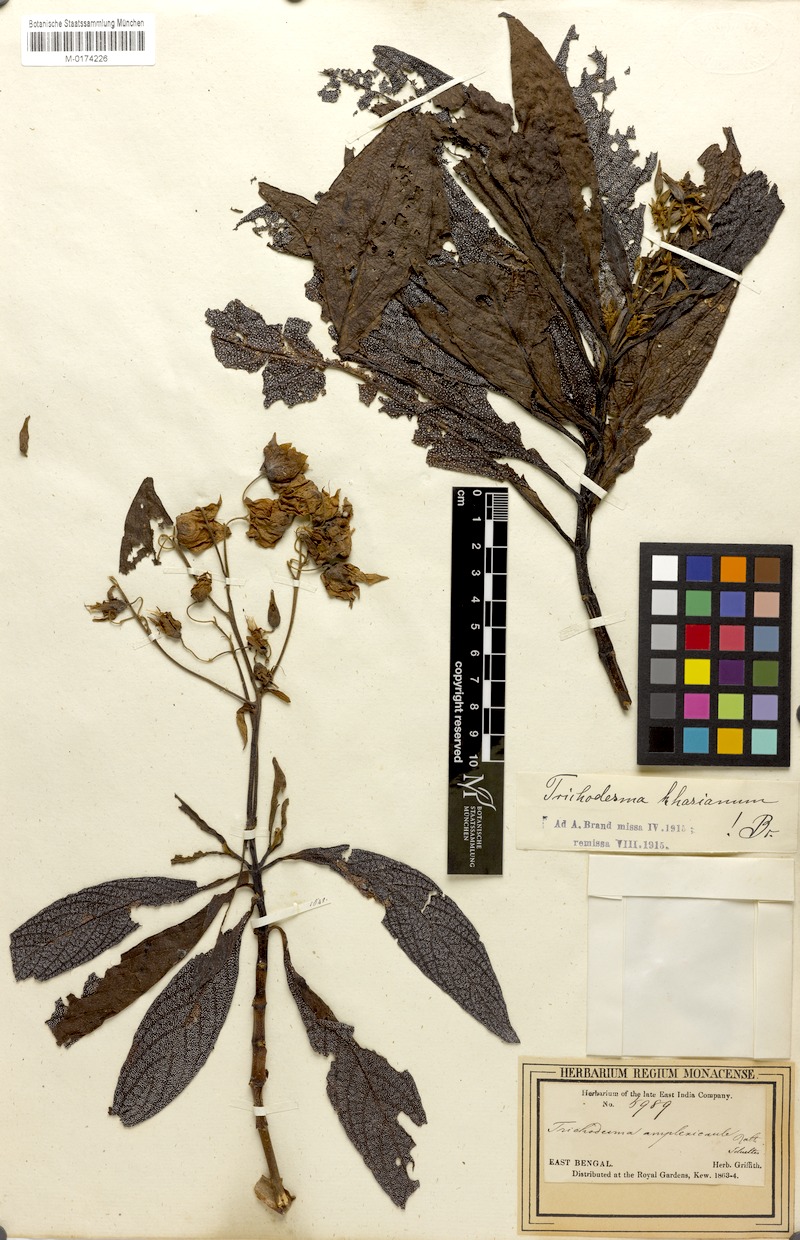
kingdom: Plantae
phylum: Tracheophyta
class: Magnoliopsida
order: Boraginales
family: Boraginaceae
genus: Trichodesma
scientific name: Trichodesma khasianum
